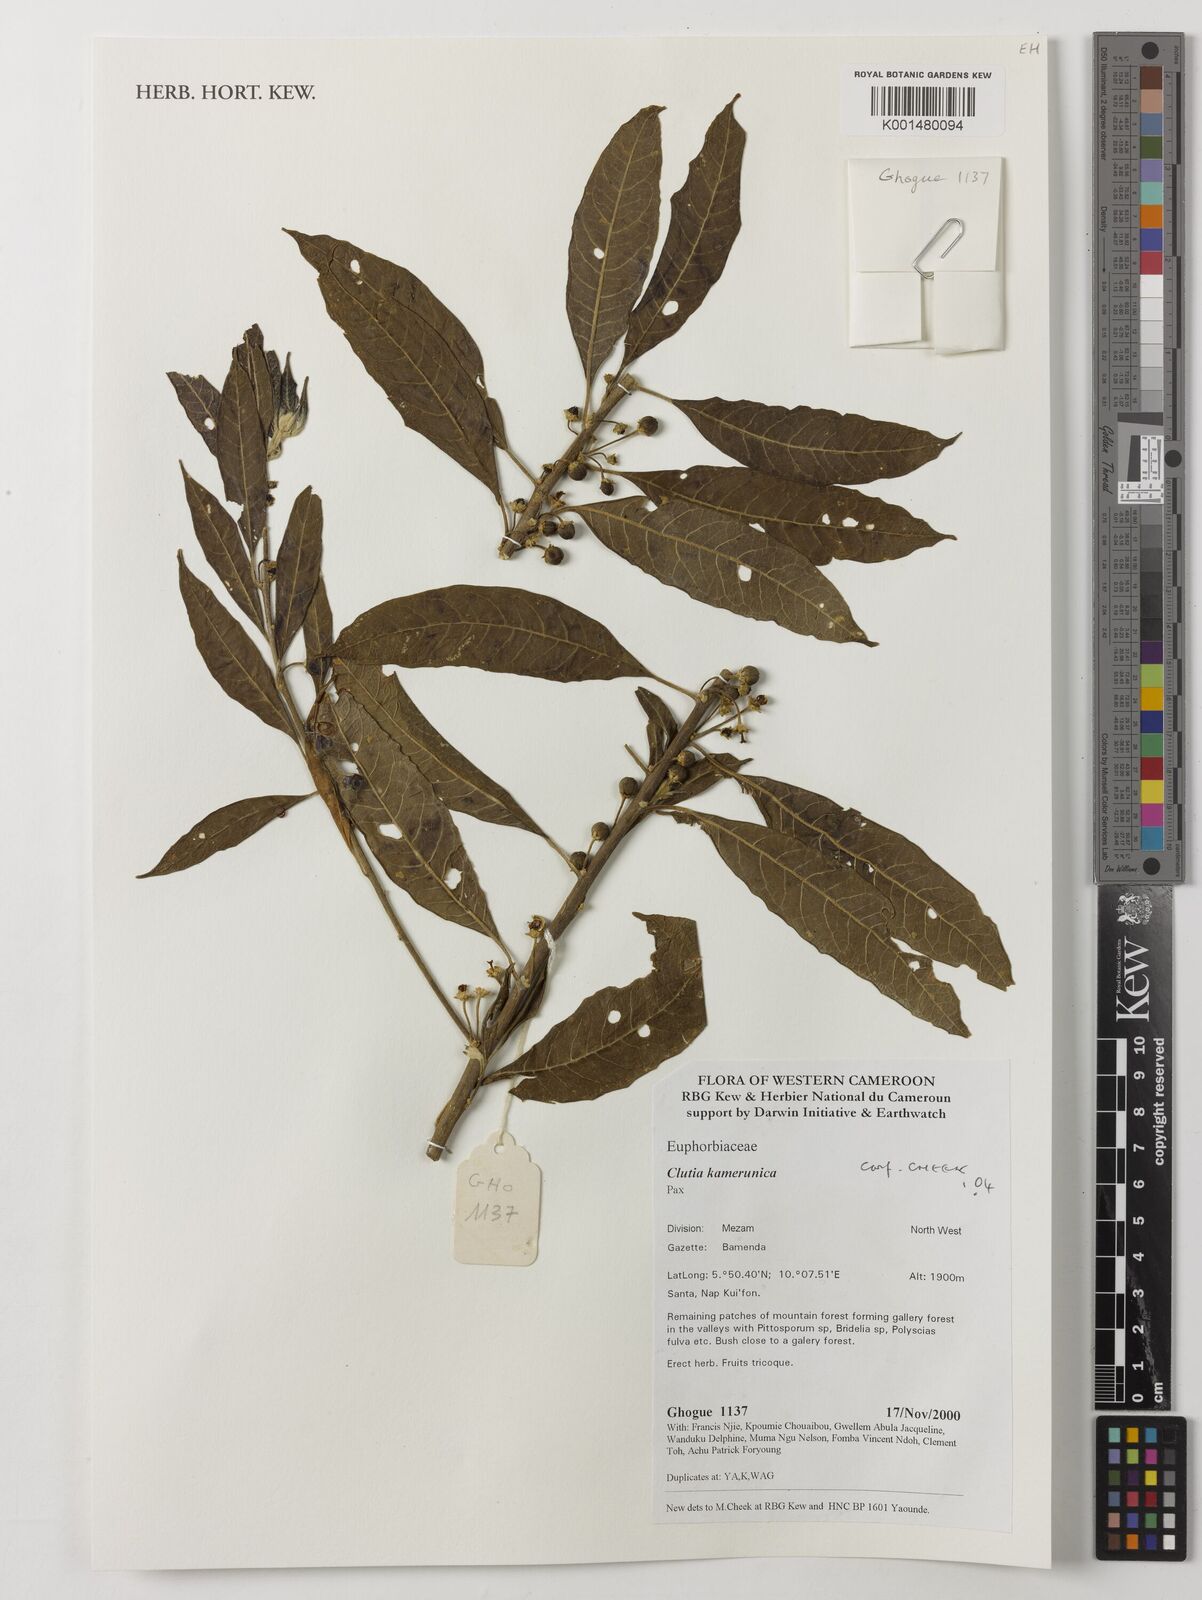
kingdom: Plantae
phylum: Tracheophyta
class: Magnoliopsida
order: Malpighiales
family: Peraceae
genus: Clutia
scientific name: Clutia kamerunica
